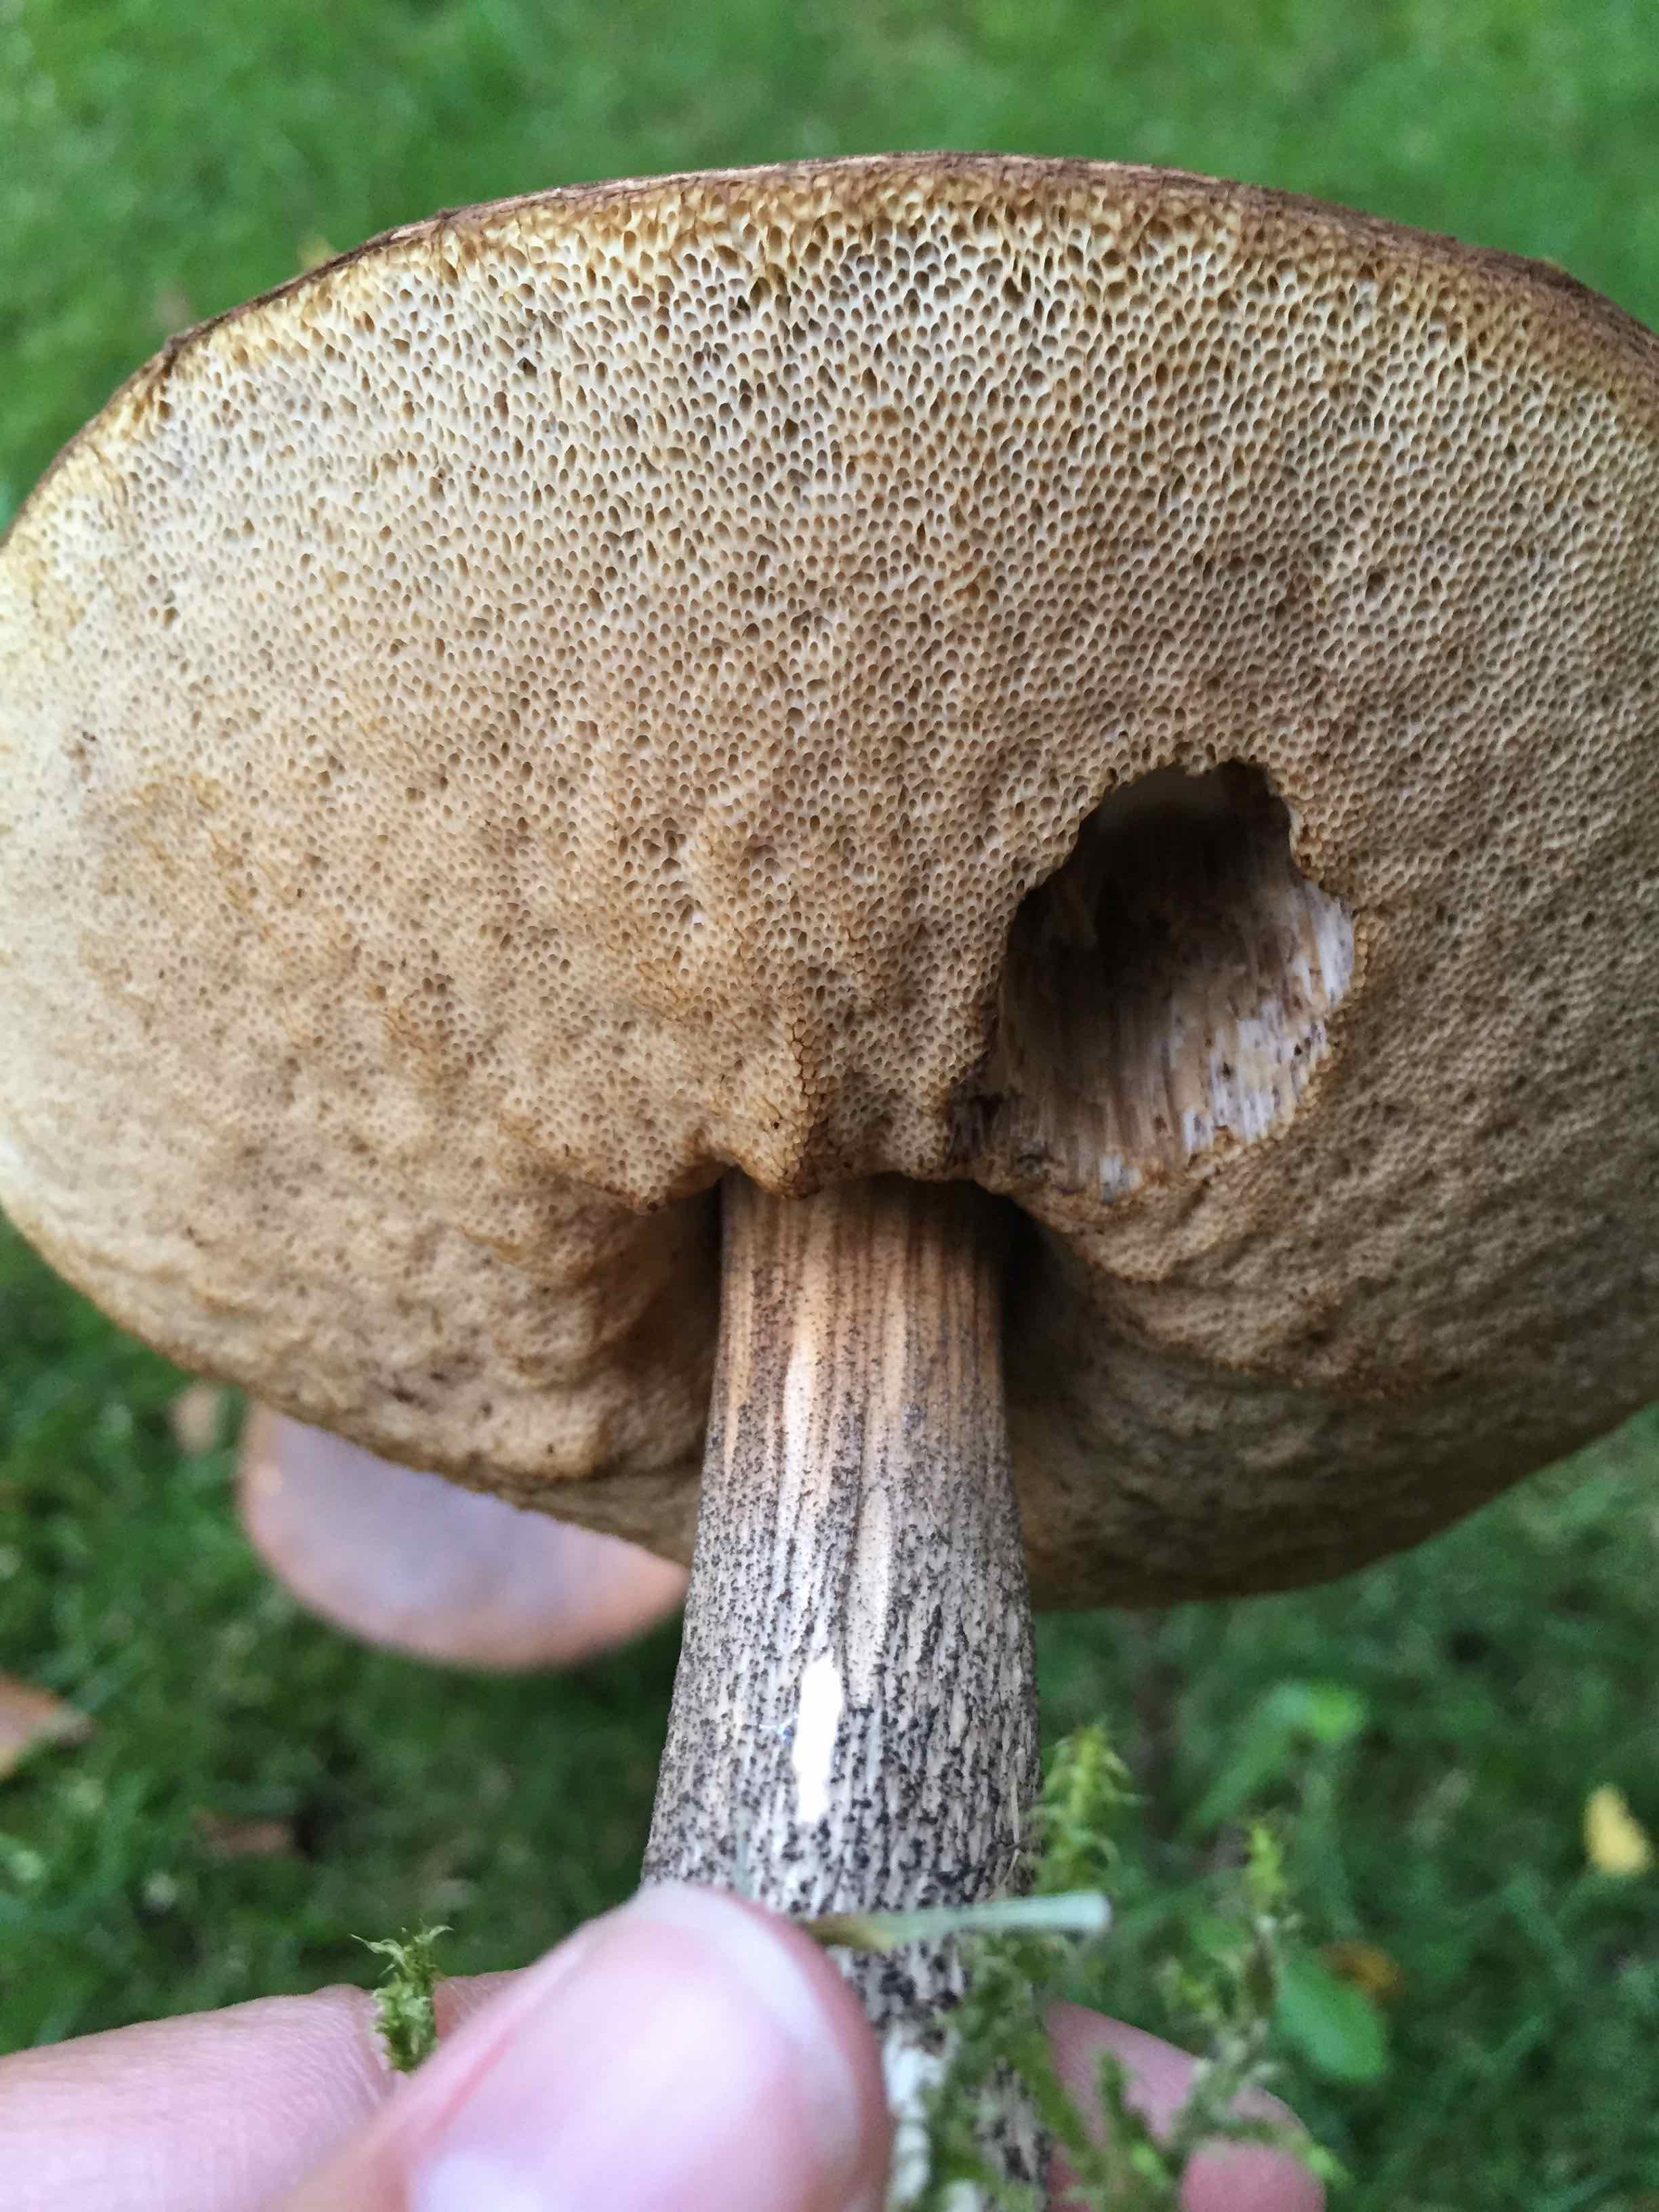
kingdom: Fungi
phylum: Basidiomycota
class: Agaricomycetes
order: Boletales
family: Boletaceae
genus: Leccinum
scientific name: Leccinum scabrum
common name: brun skælrørhat
